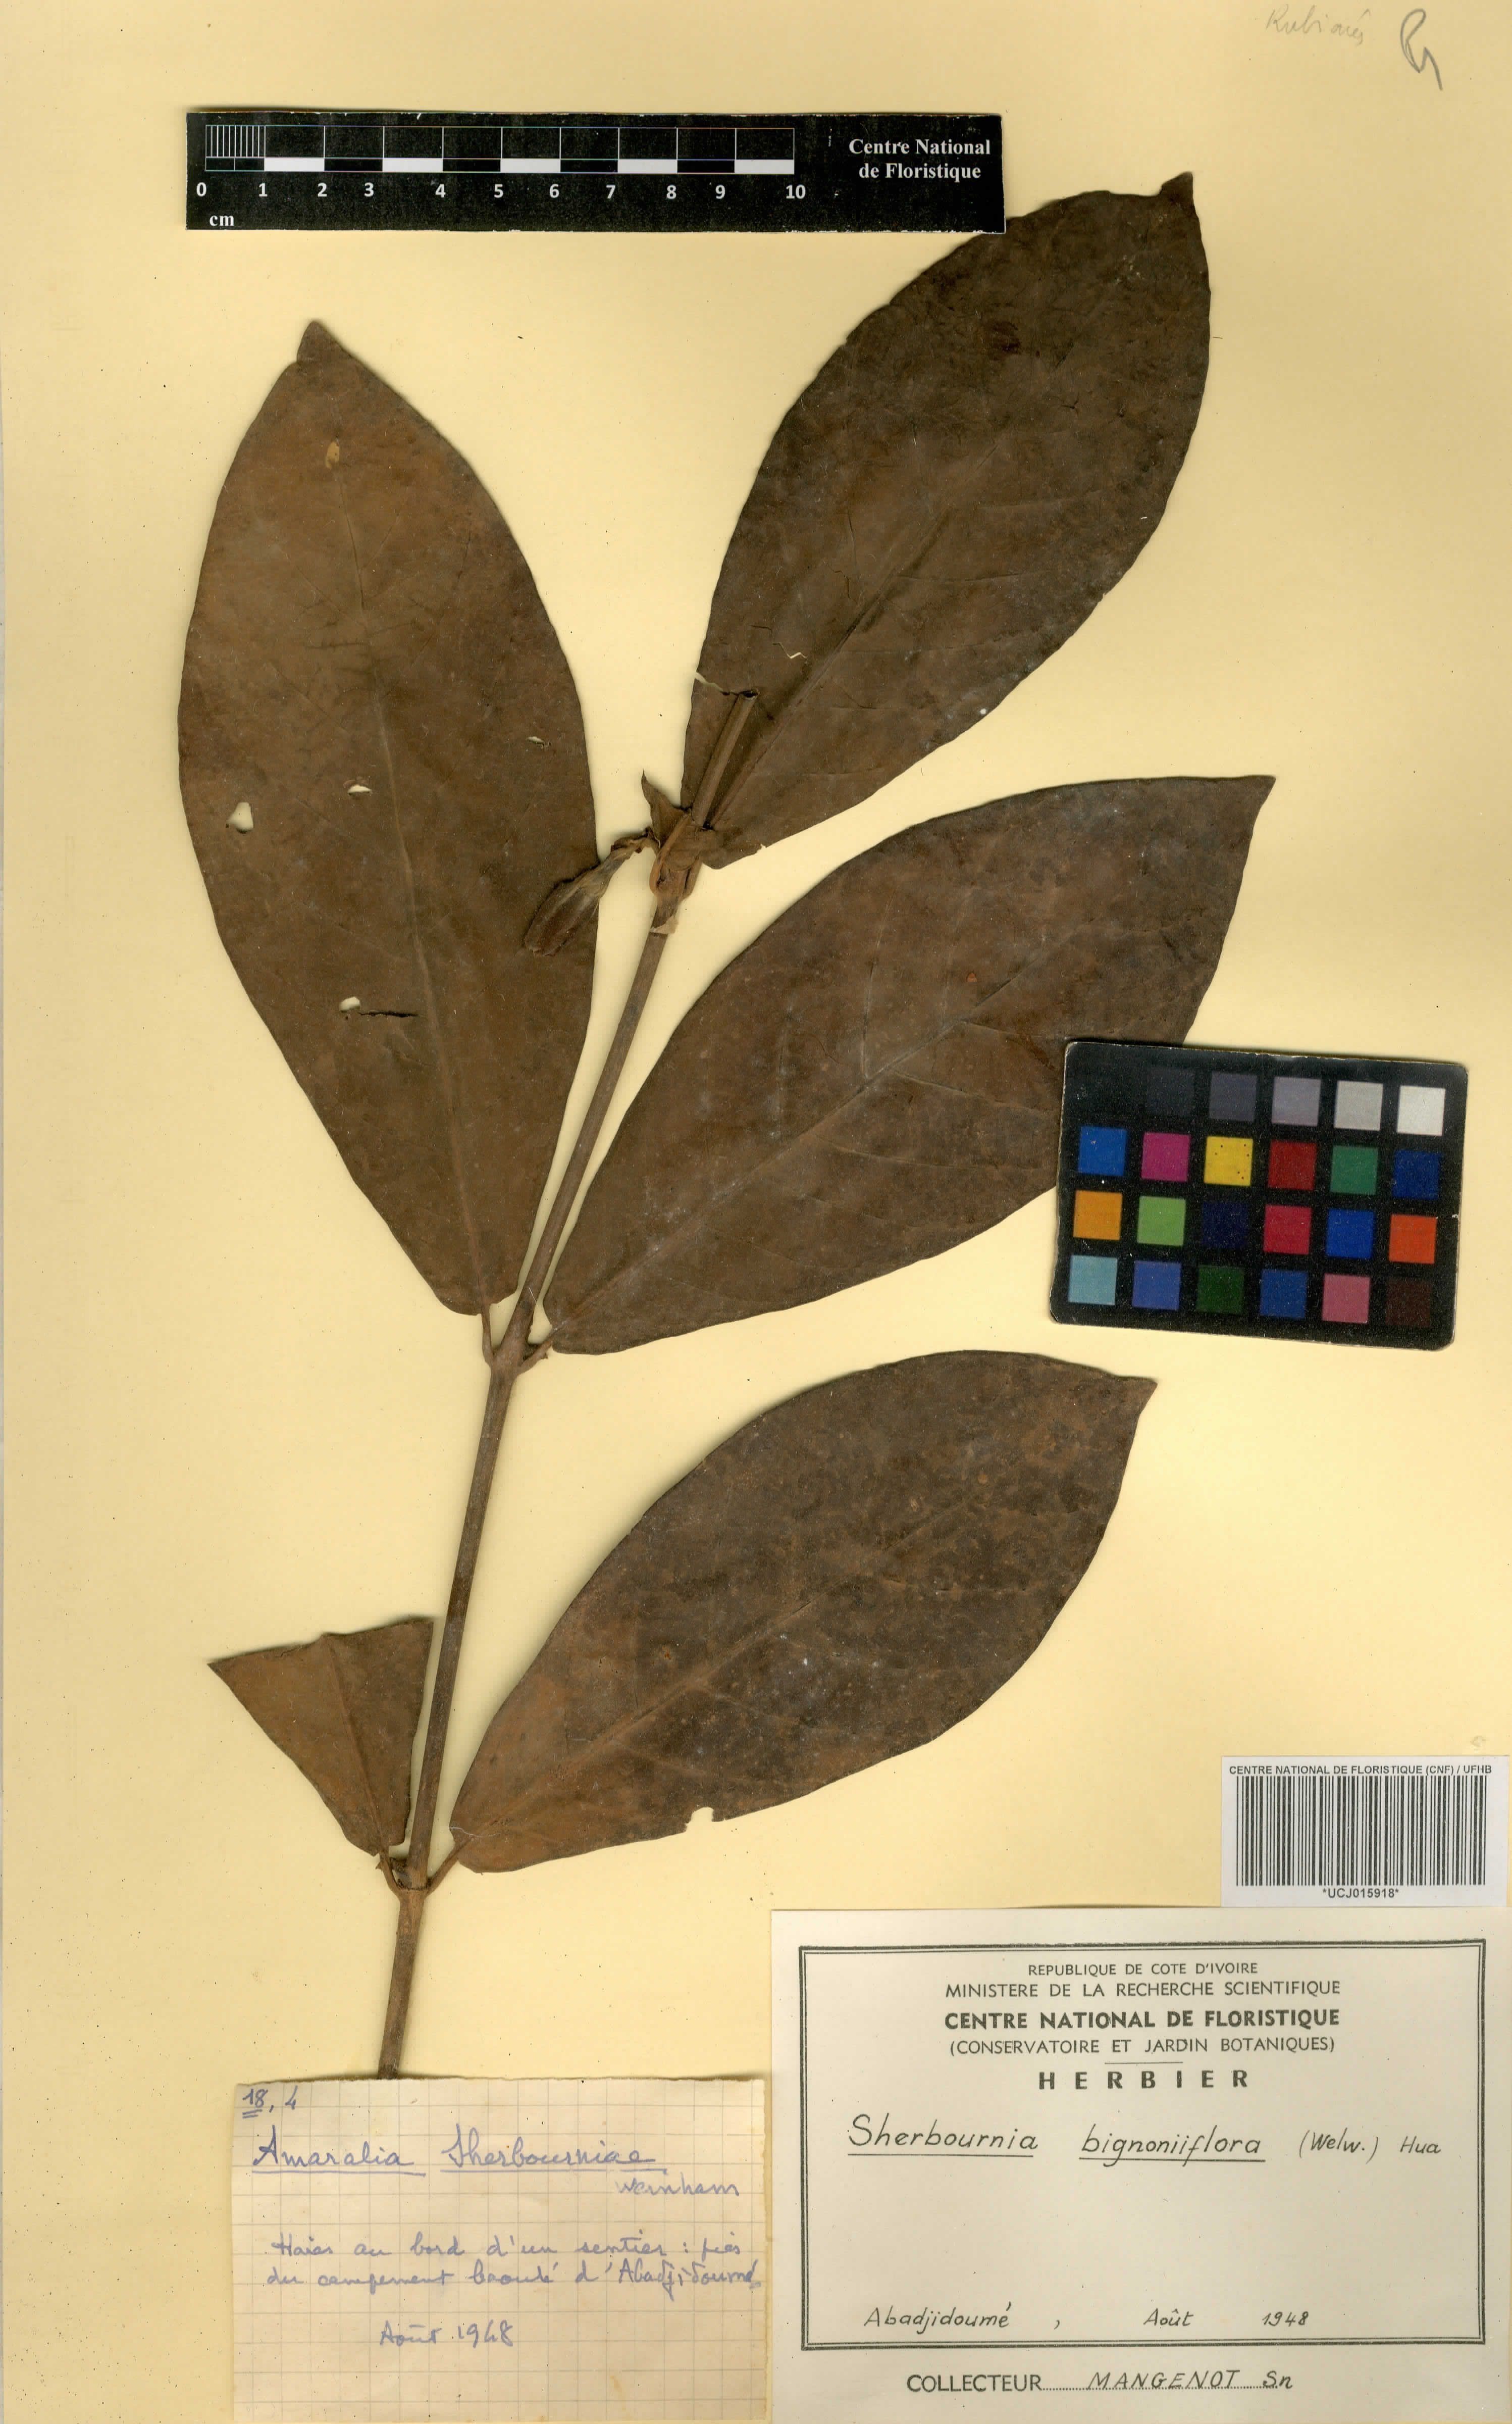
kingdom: Plantae
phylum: Tracheophyta
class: Magnoliopsida
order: Gentianales
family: Rubiaceae
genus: Sherbournia
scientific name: Sherbournia bignoniiflora
